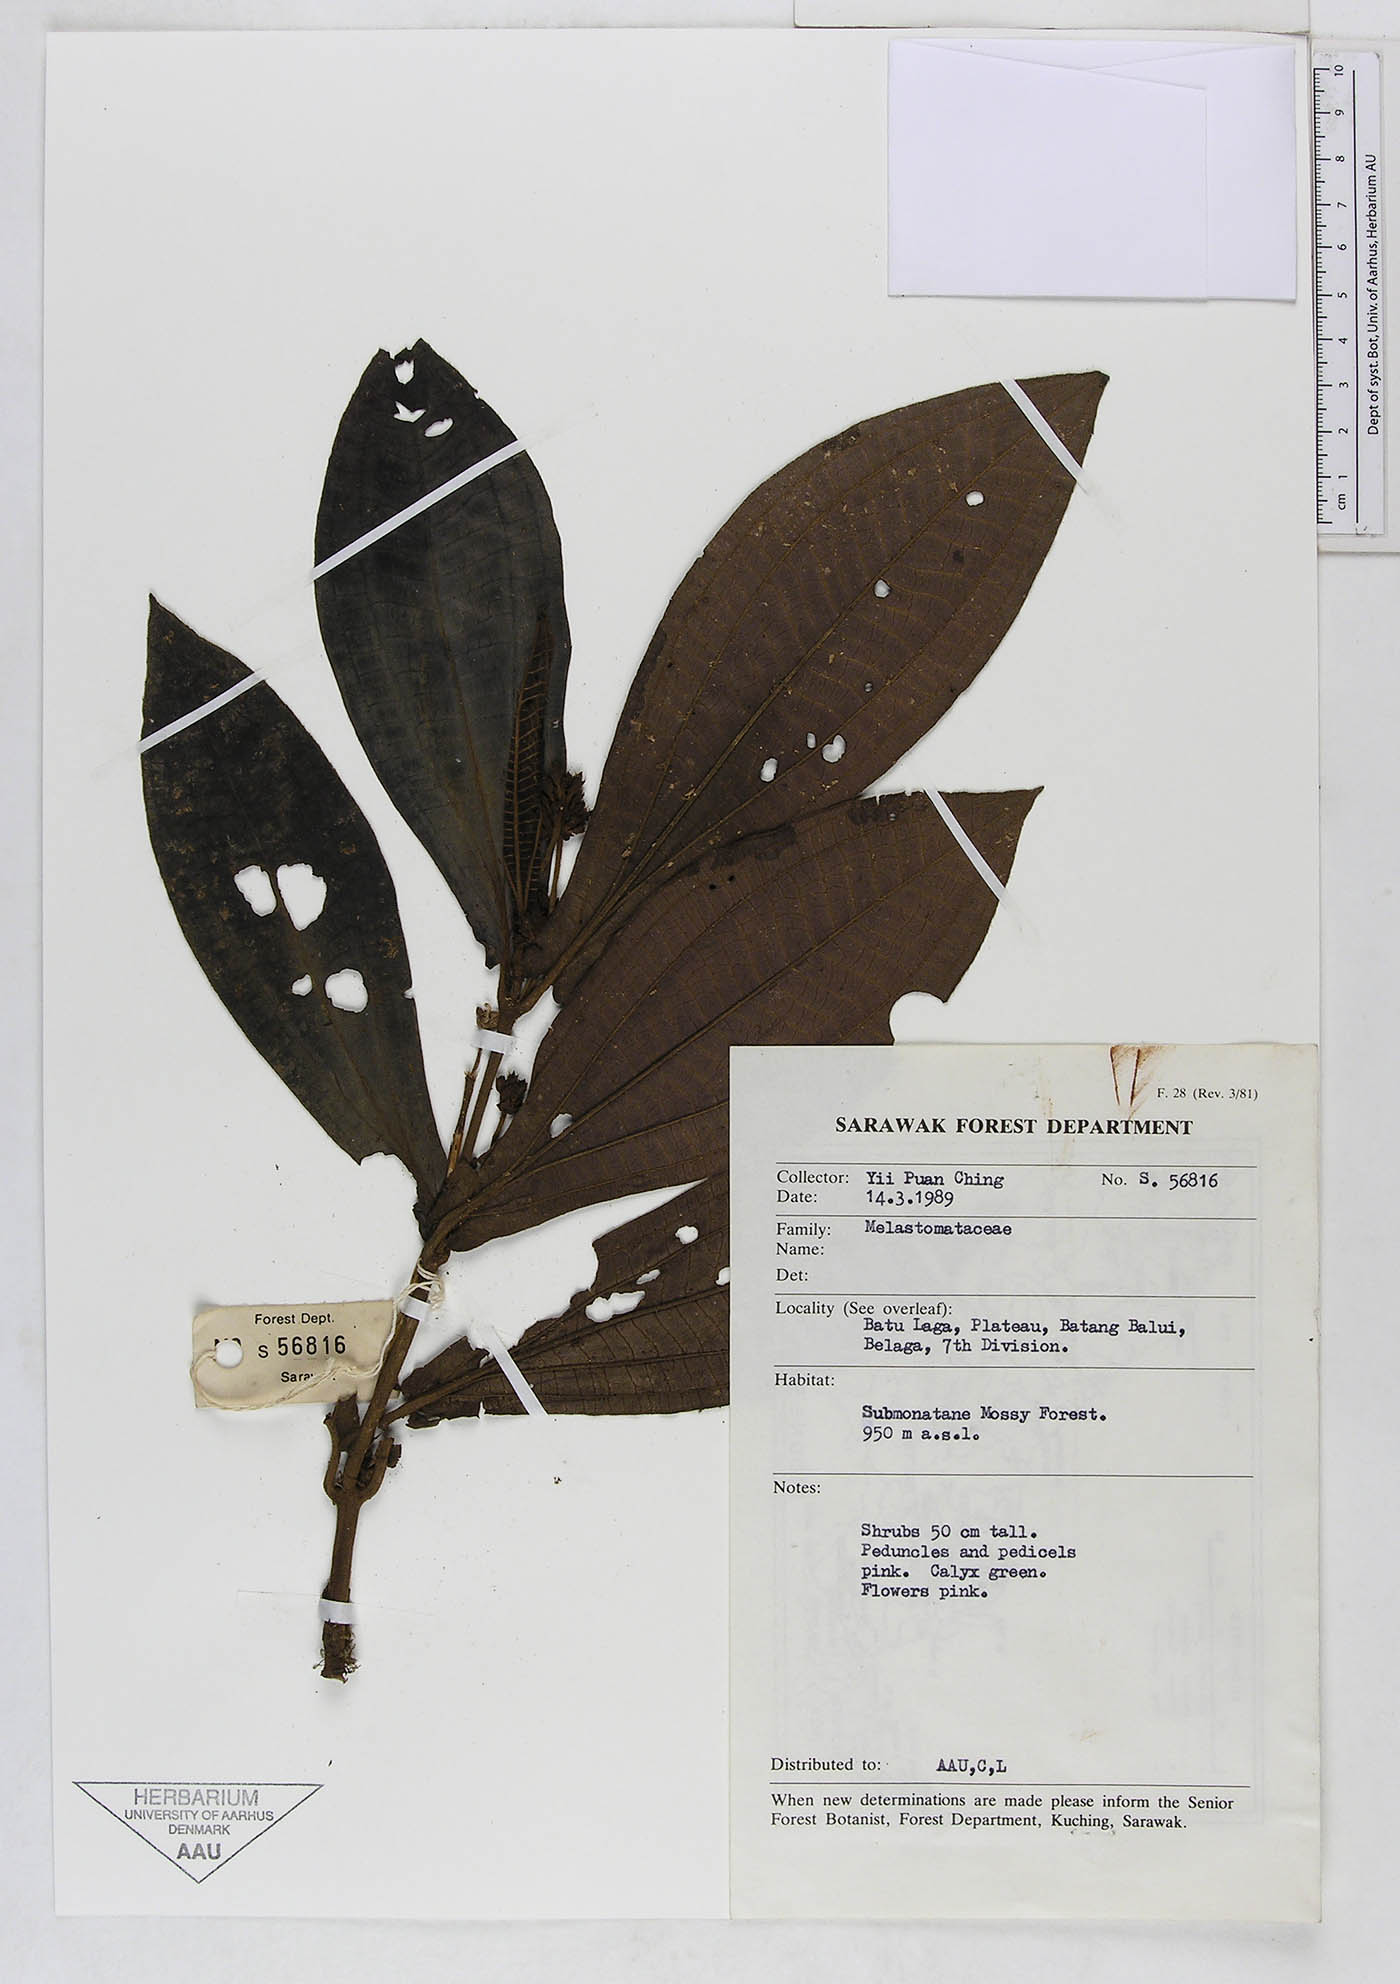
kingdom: Plantae
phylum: Tracheophyta
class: Magnoliopsida
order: Myrtales
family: Melastomataceae
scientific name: Melastomataceae
